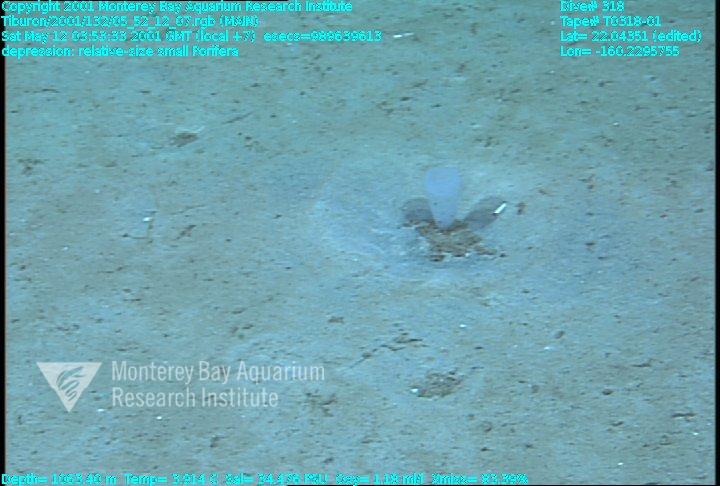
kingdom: Animalia
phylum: Porifera
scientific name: Porifera
